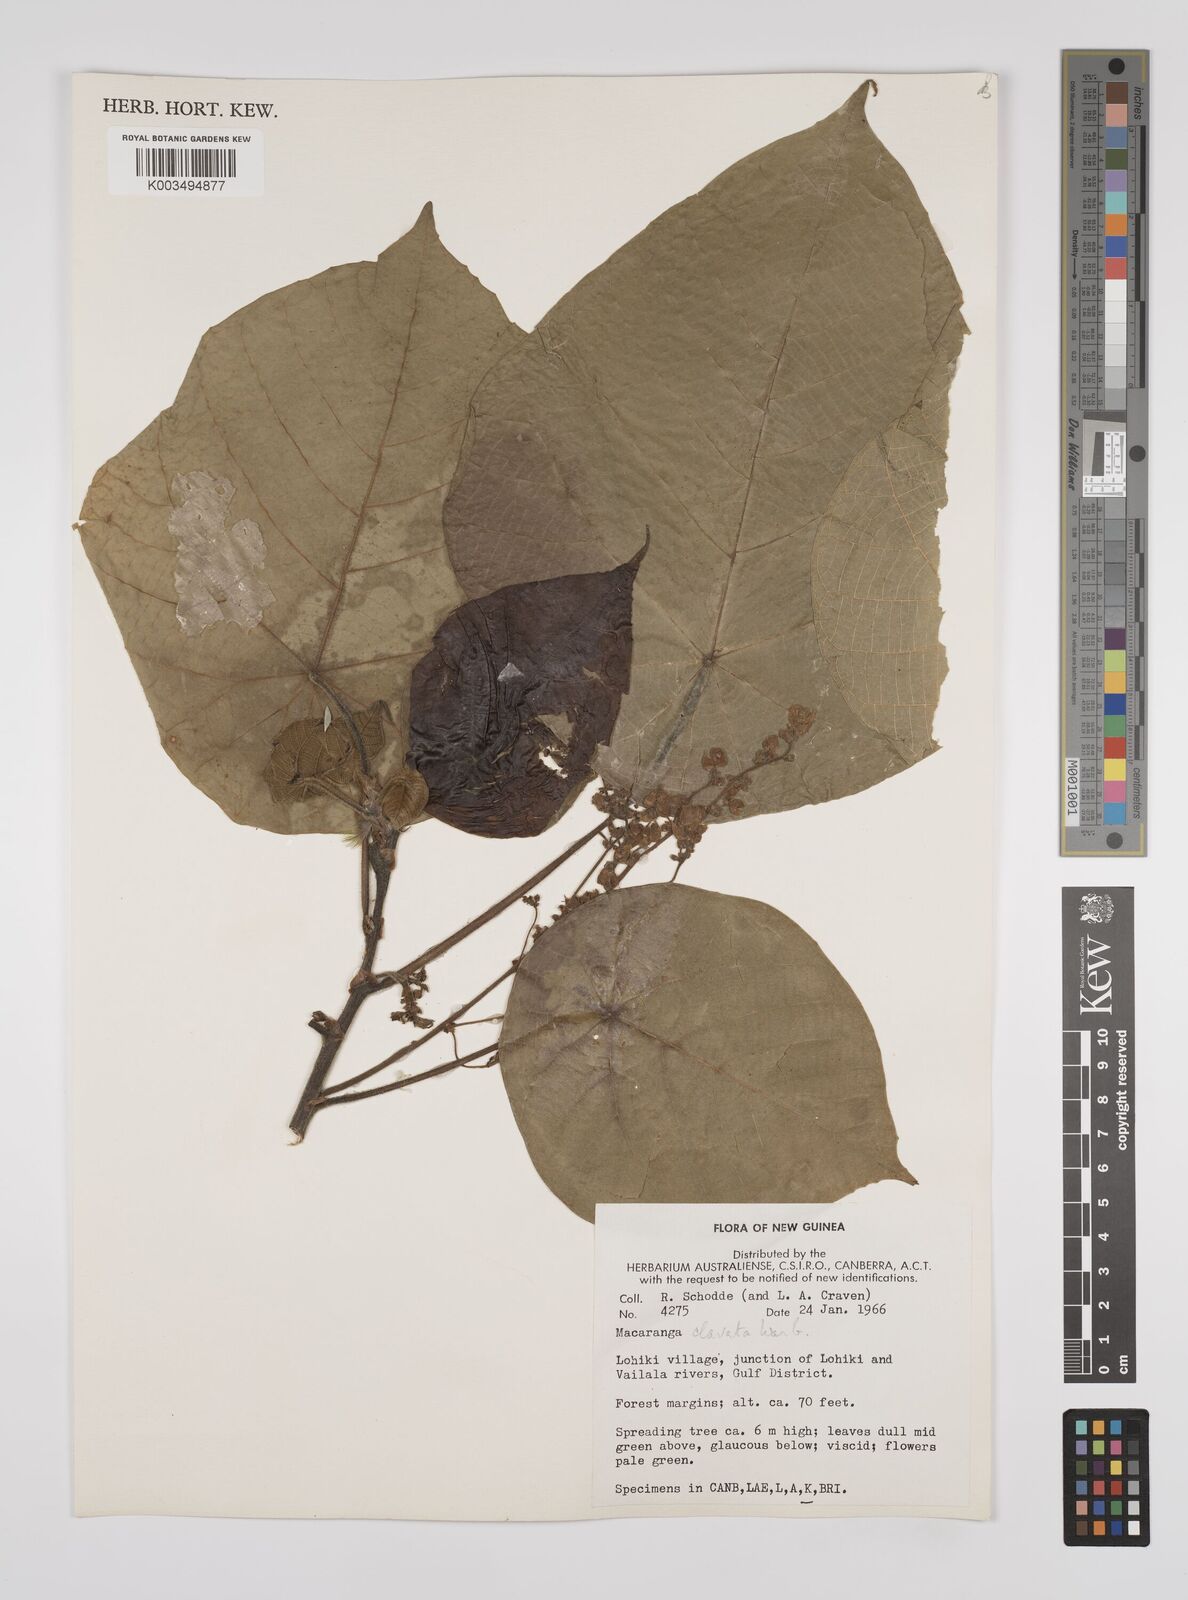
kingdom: Plantae
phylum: Tracheophyta
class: Magnoliopsida
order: Malpighiales
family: Euphorbiaceae
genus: Macaranga
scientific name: Macaranga clavata
